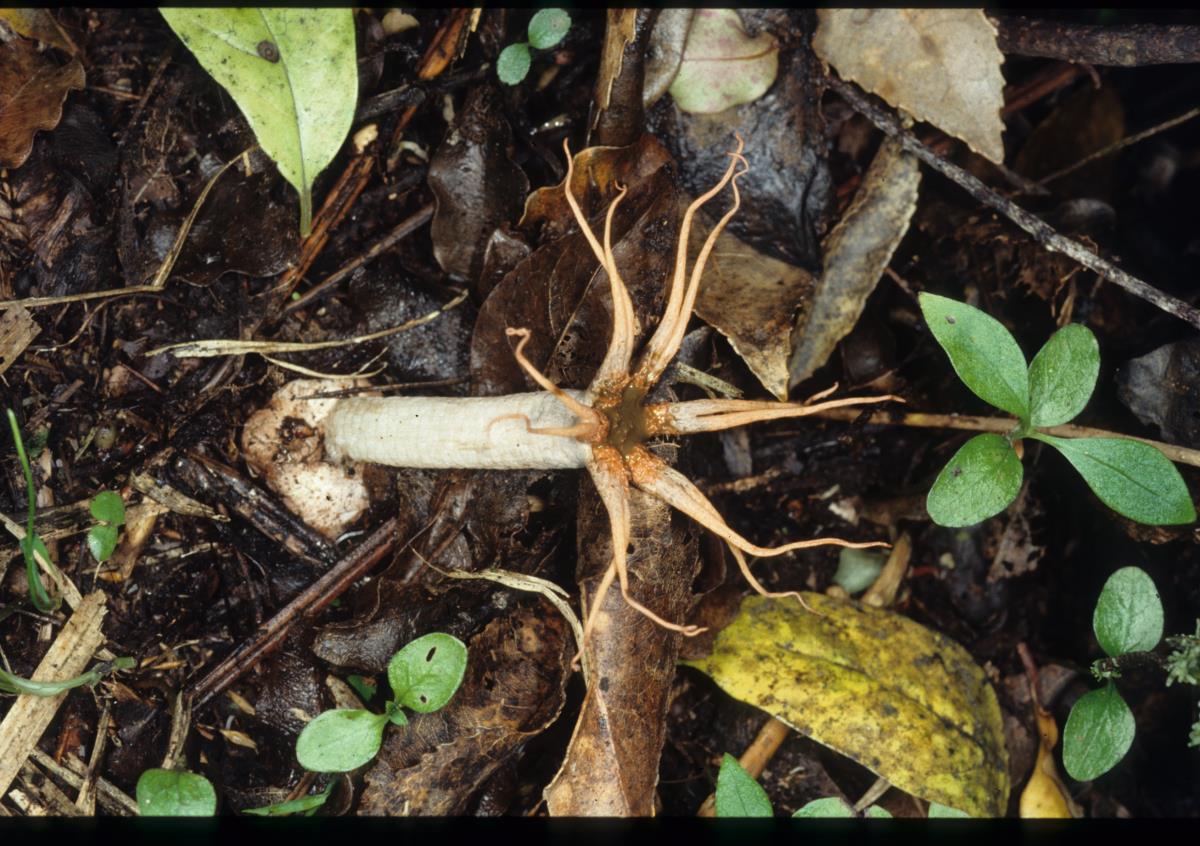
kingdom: Fungi
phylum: Basidiomycota
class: Agaricomycetes
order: Phallales
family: Phallaceae
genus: Aseroe
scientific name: Aseroe rubra
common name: Starfish fungus
